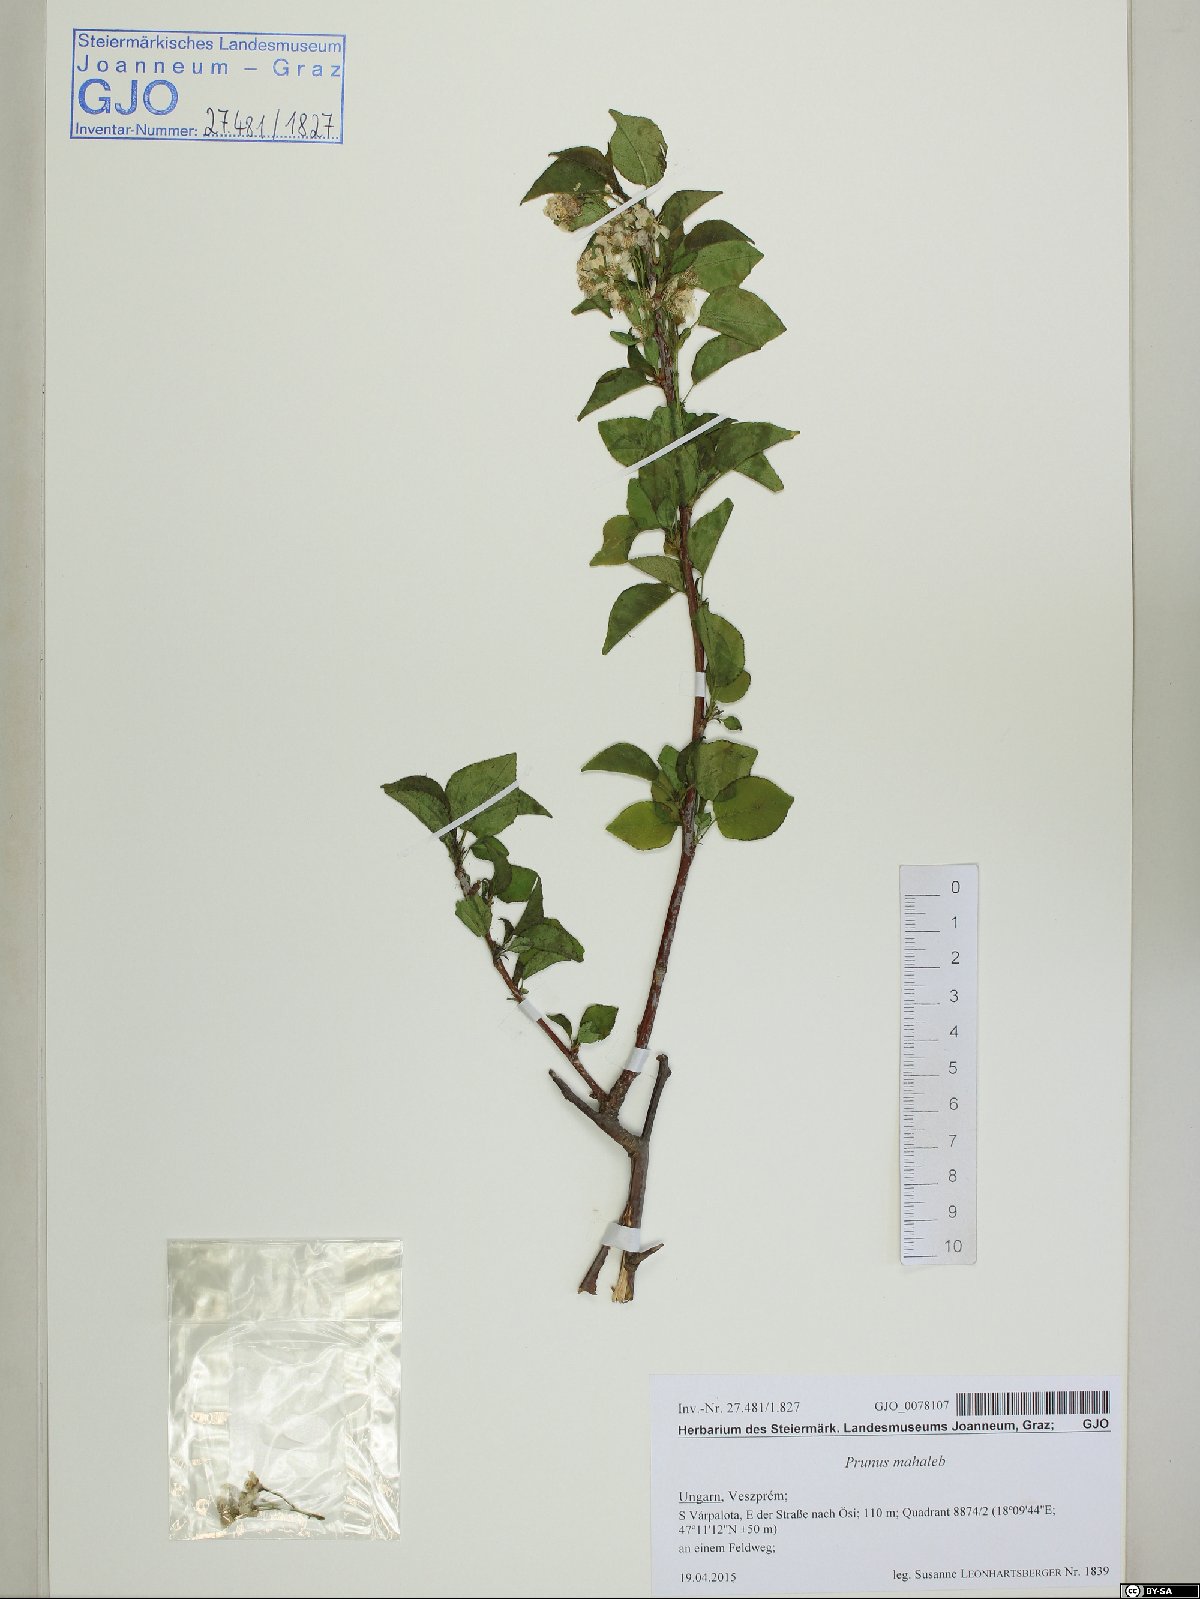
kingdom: Plantae
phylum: Tracheophyta
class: Magnoliopsida
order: Rosales
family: Rosaceae
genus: Prunus
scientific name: Prunus mahaleb
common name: Mahaleb cherry
